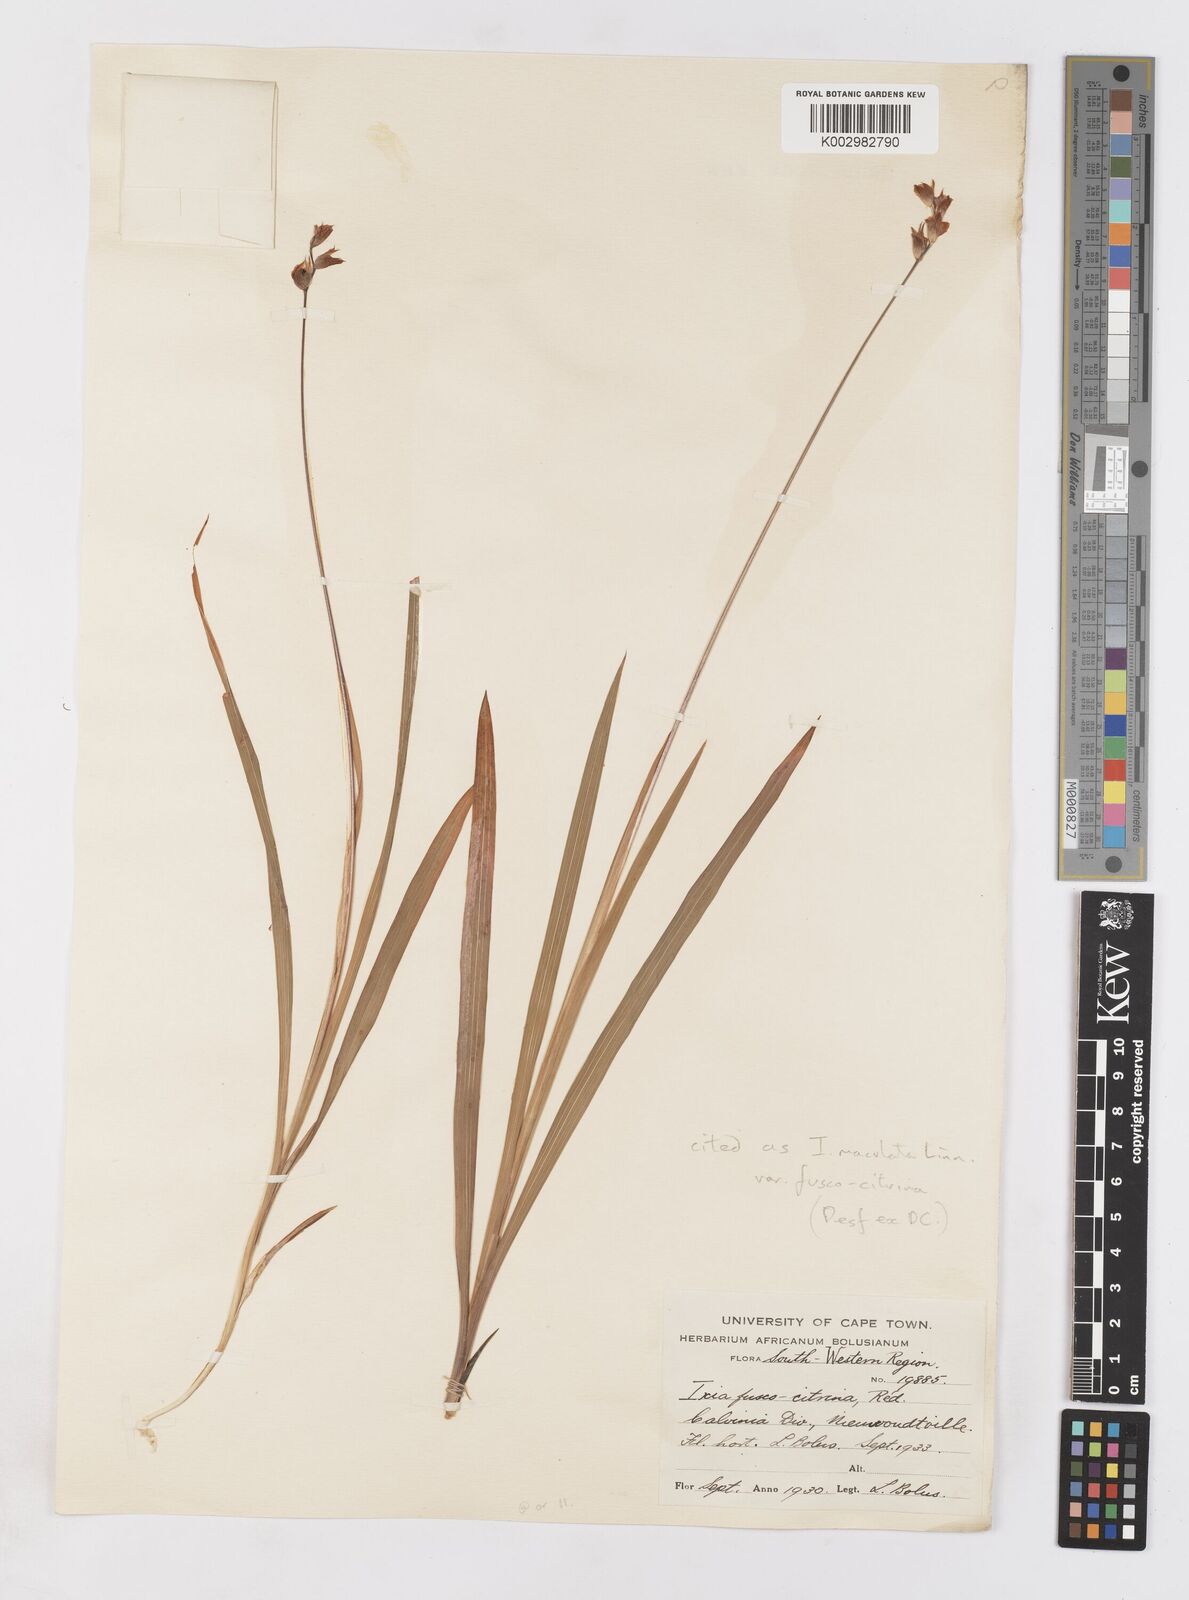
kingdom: Plantae
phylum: Tracheophyta
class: Liliopsida
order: Asparagales
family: Iridaceae
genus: Ixia
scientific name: Ixia fuscocitrina
